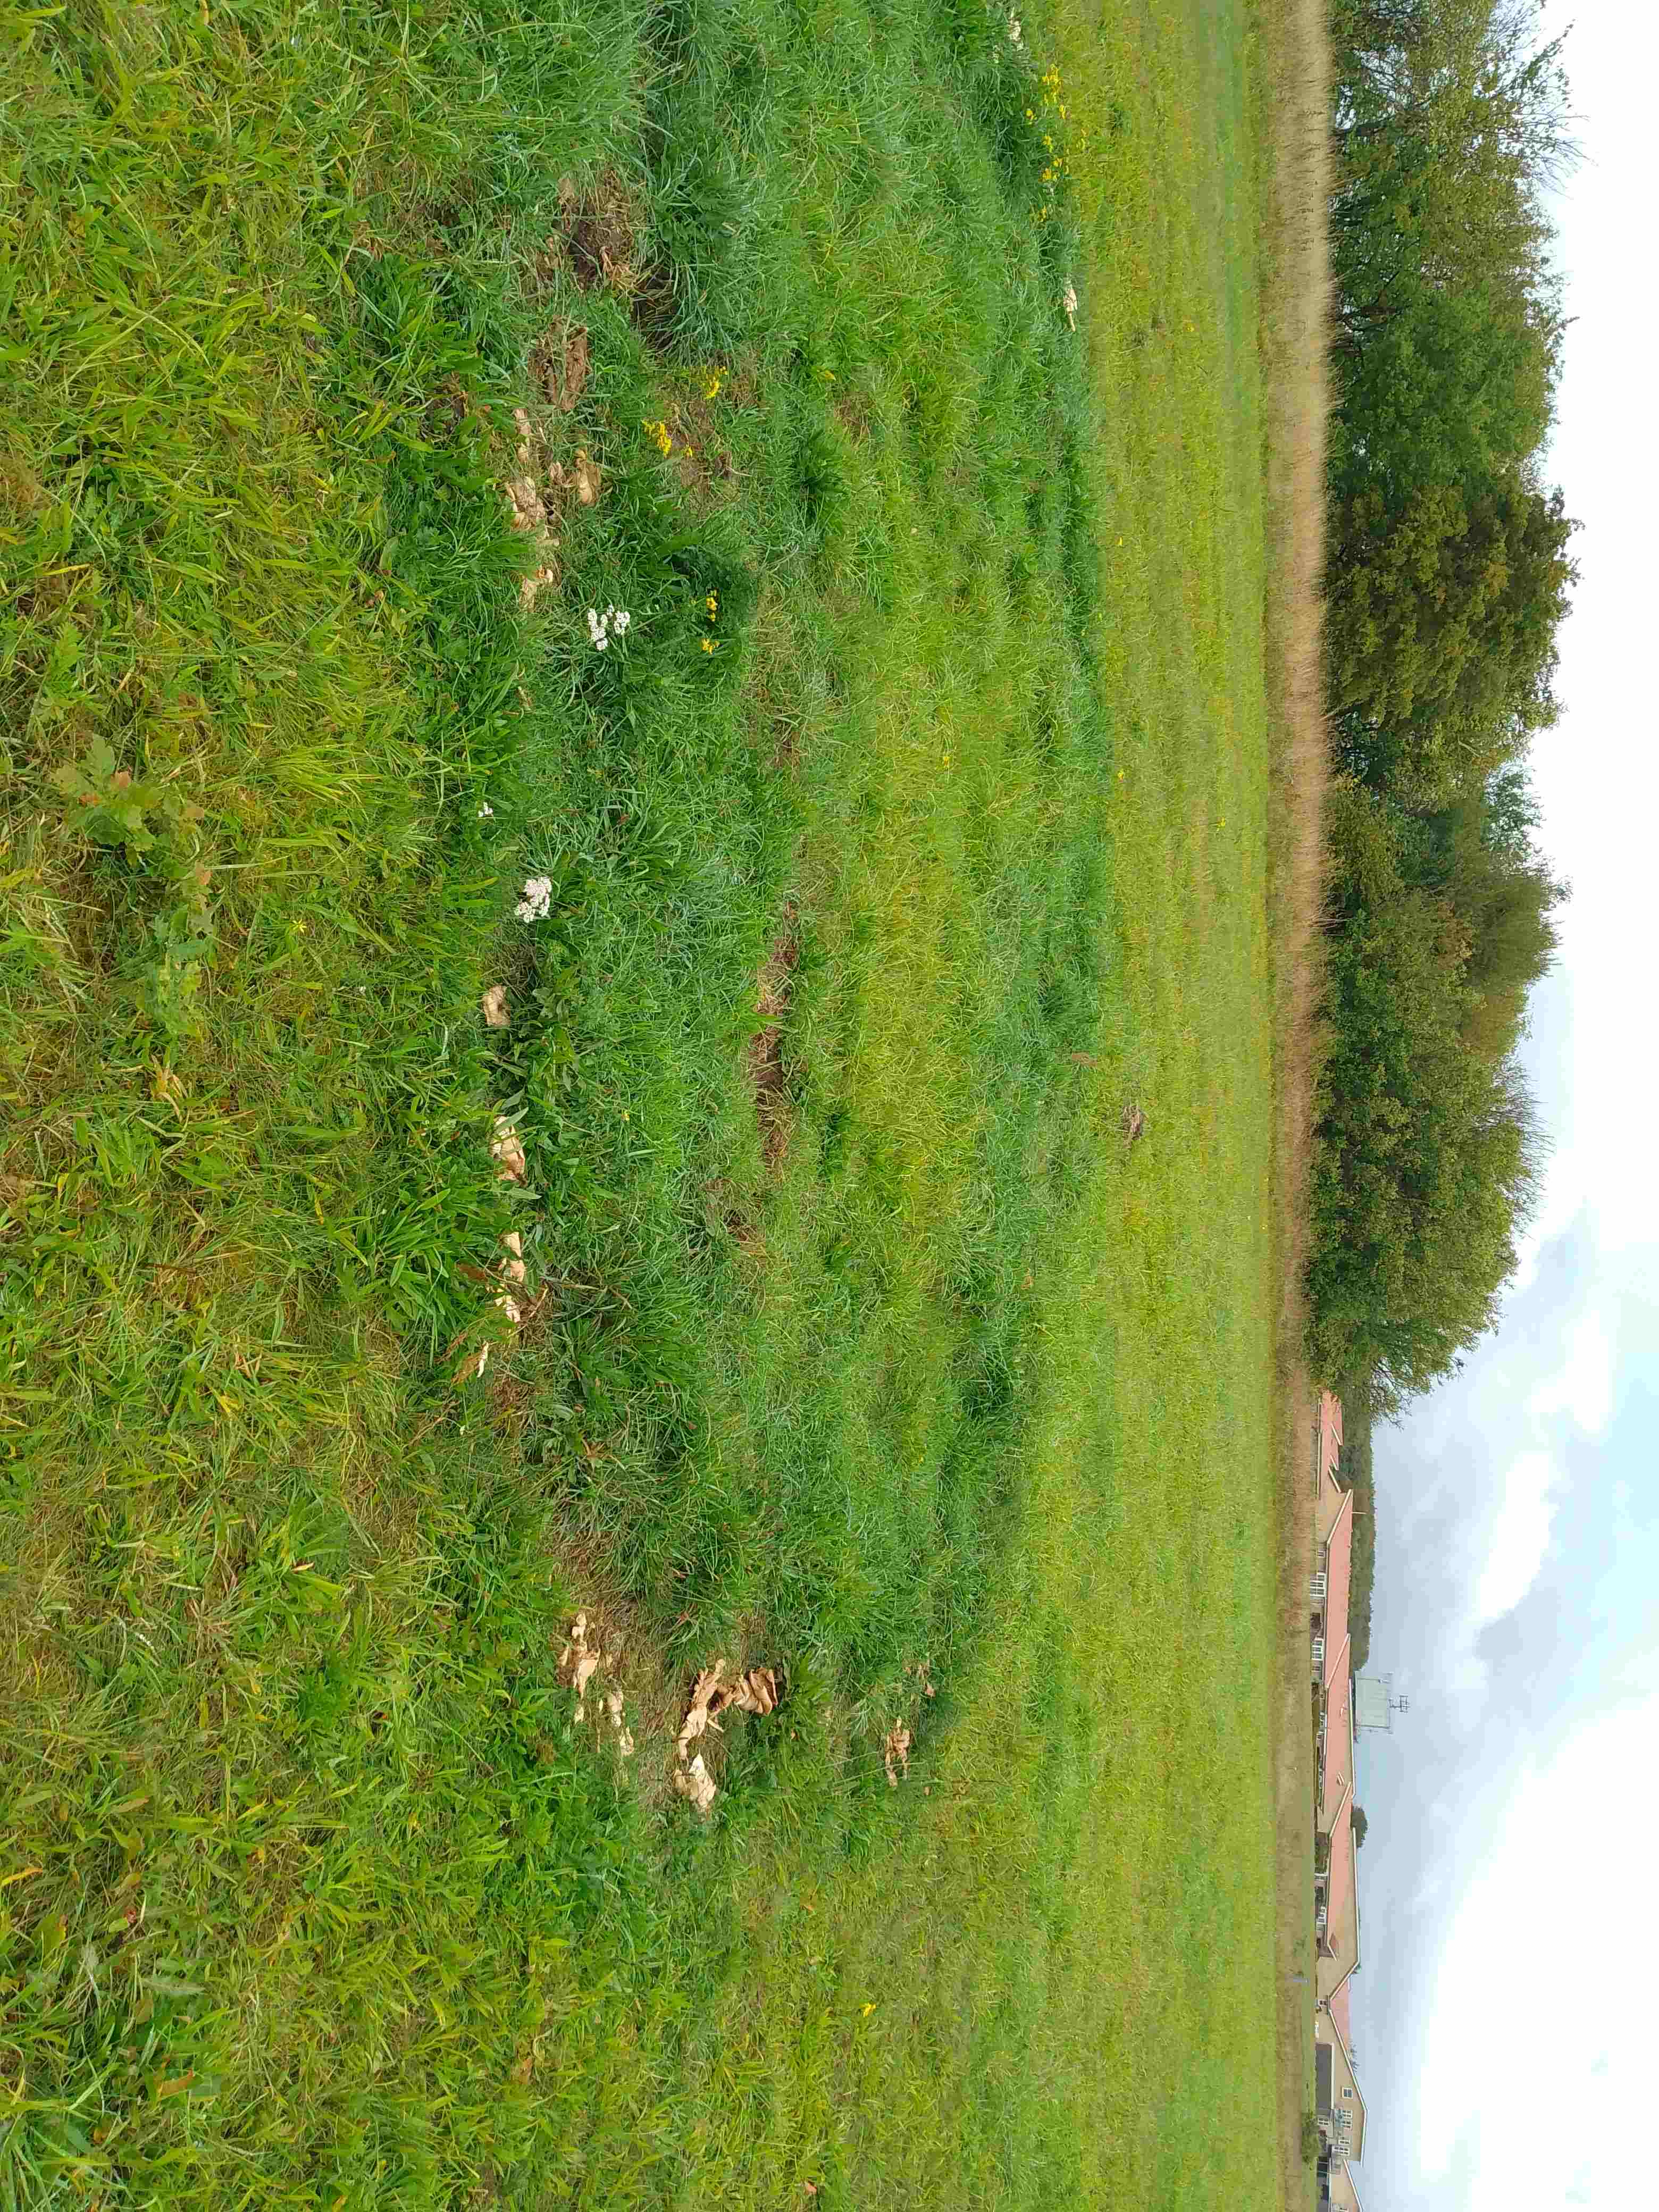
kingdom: Fungi
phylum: Basidiomycota
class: Agaricomycetes
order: Agaricales
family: Tricholomataceae
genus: Aspropaxillus
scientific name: Aspropaxillus giganteus
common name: kæmpe-tragtridderhat
